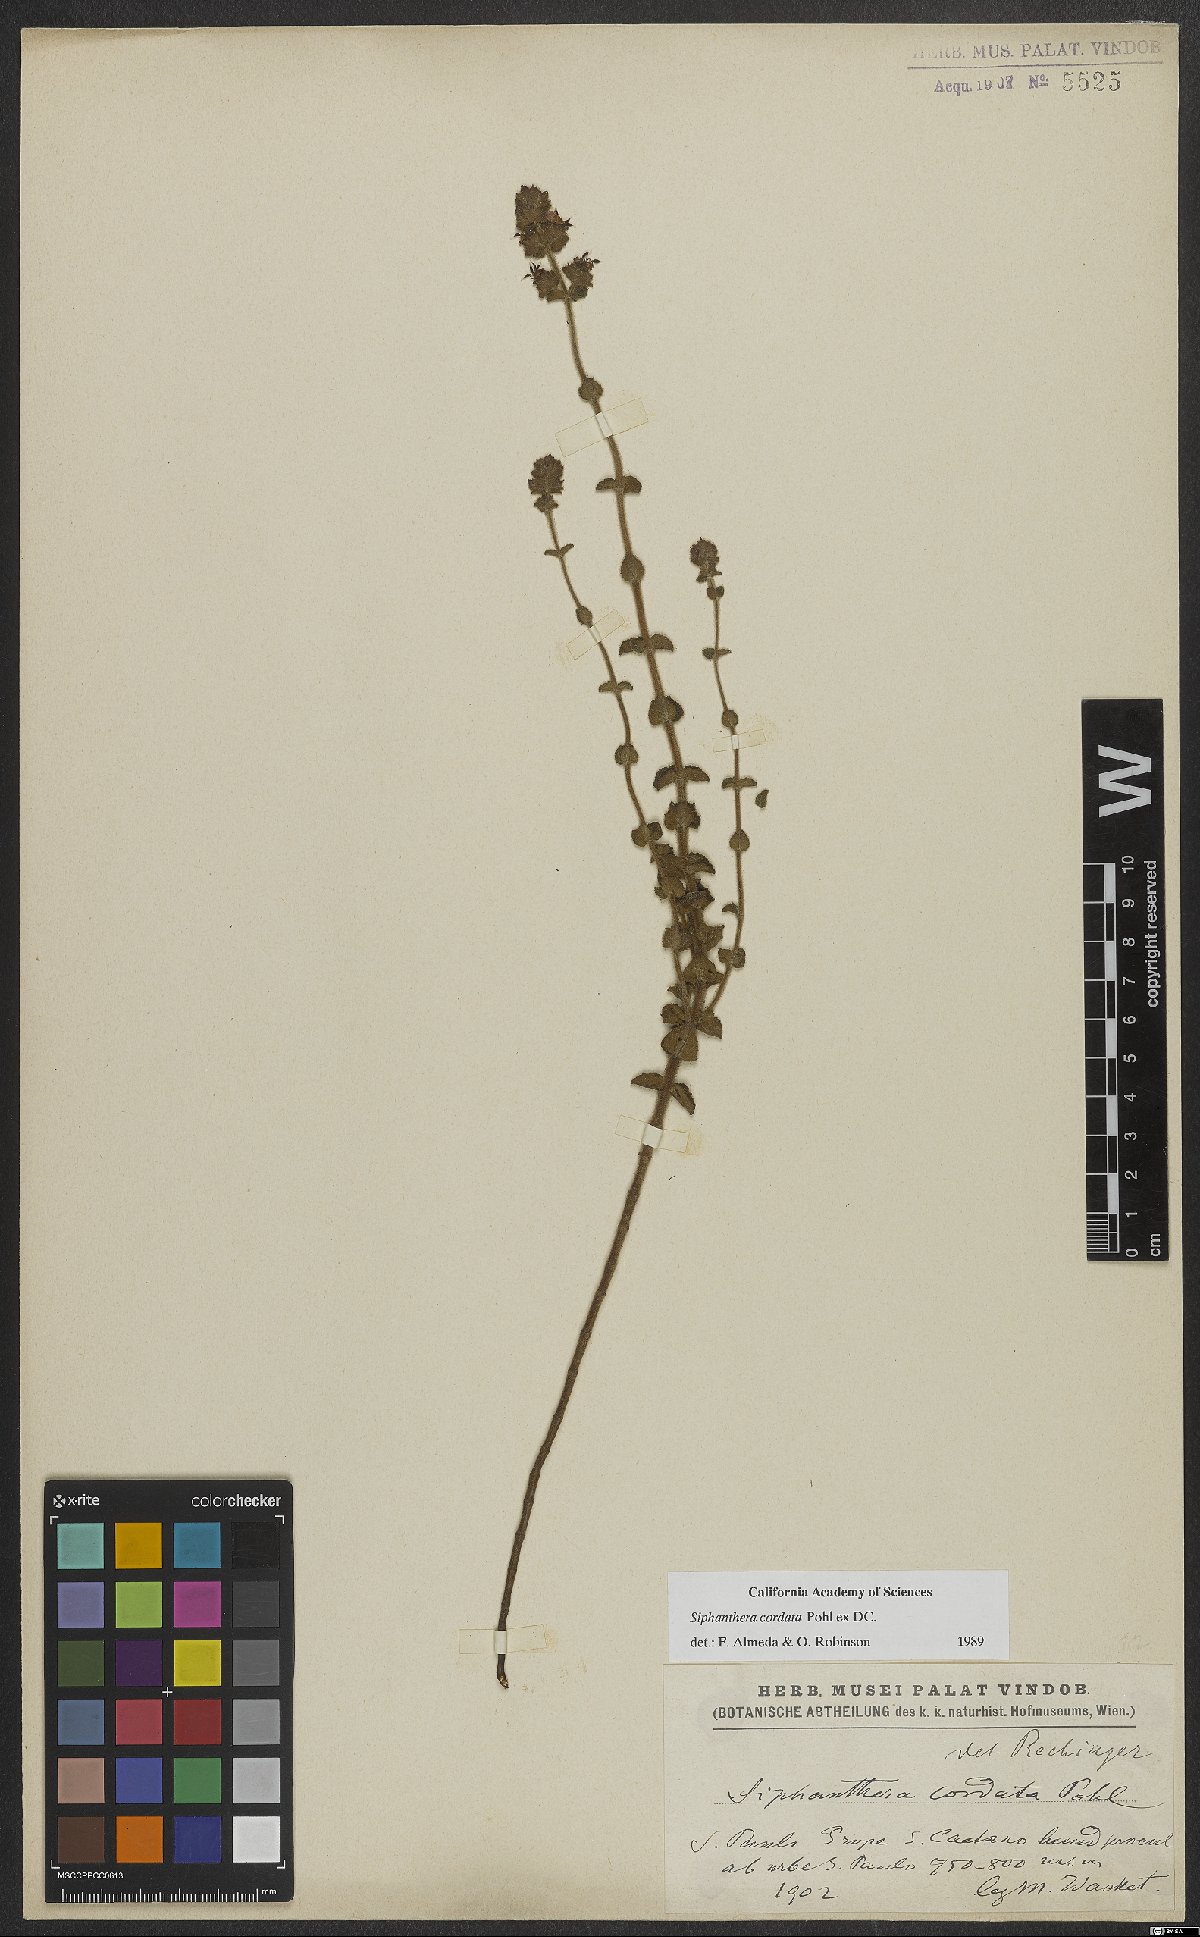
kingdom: Plantae
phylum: Tracheophyta
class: Magnoliopsida
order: Myrtales
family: Melastomataceae
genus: Siphanthera
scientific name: Siphanthera cordata
